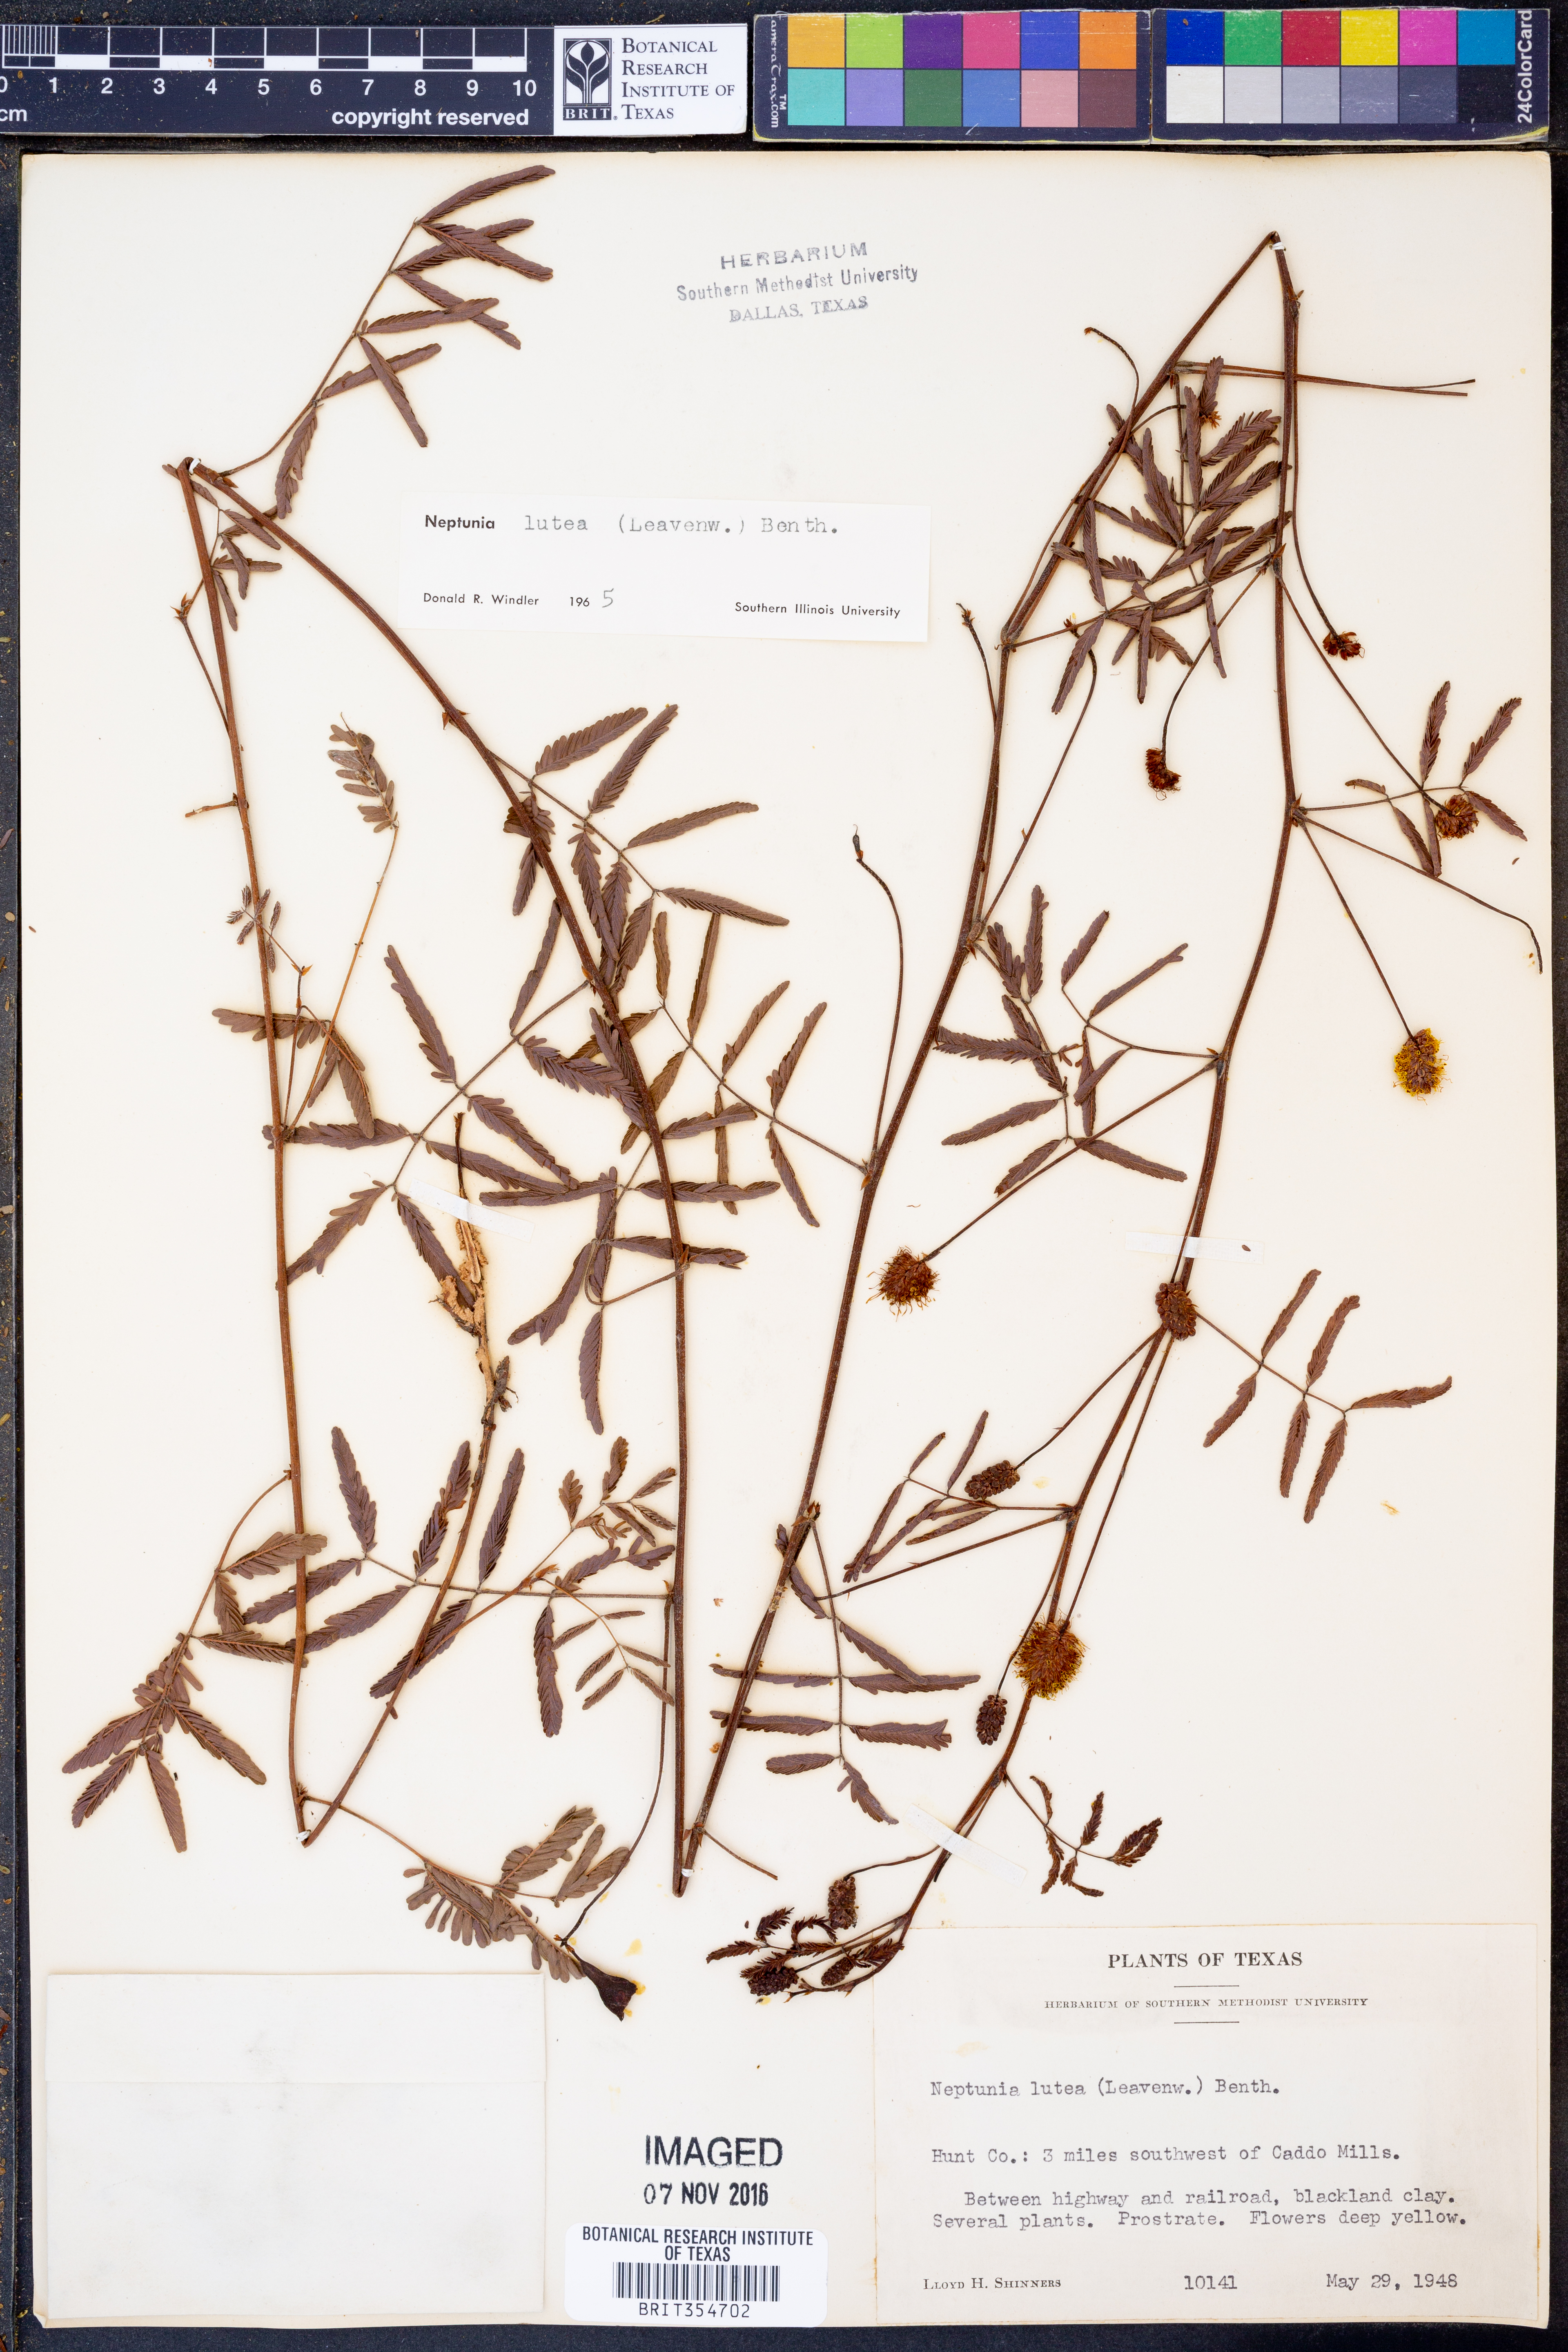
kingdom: Plantae
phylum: Tracheophyta
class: Magnoliopsida
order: Fabales
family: Fabaceae
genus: Neptunia
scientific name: Neptunia lutea
